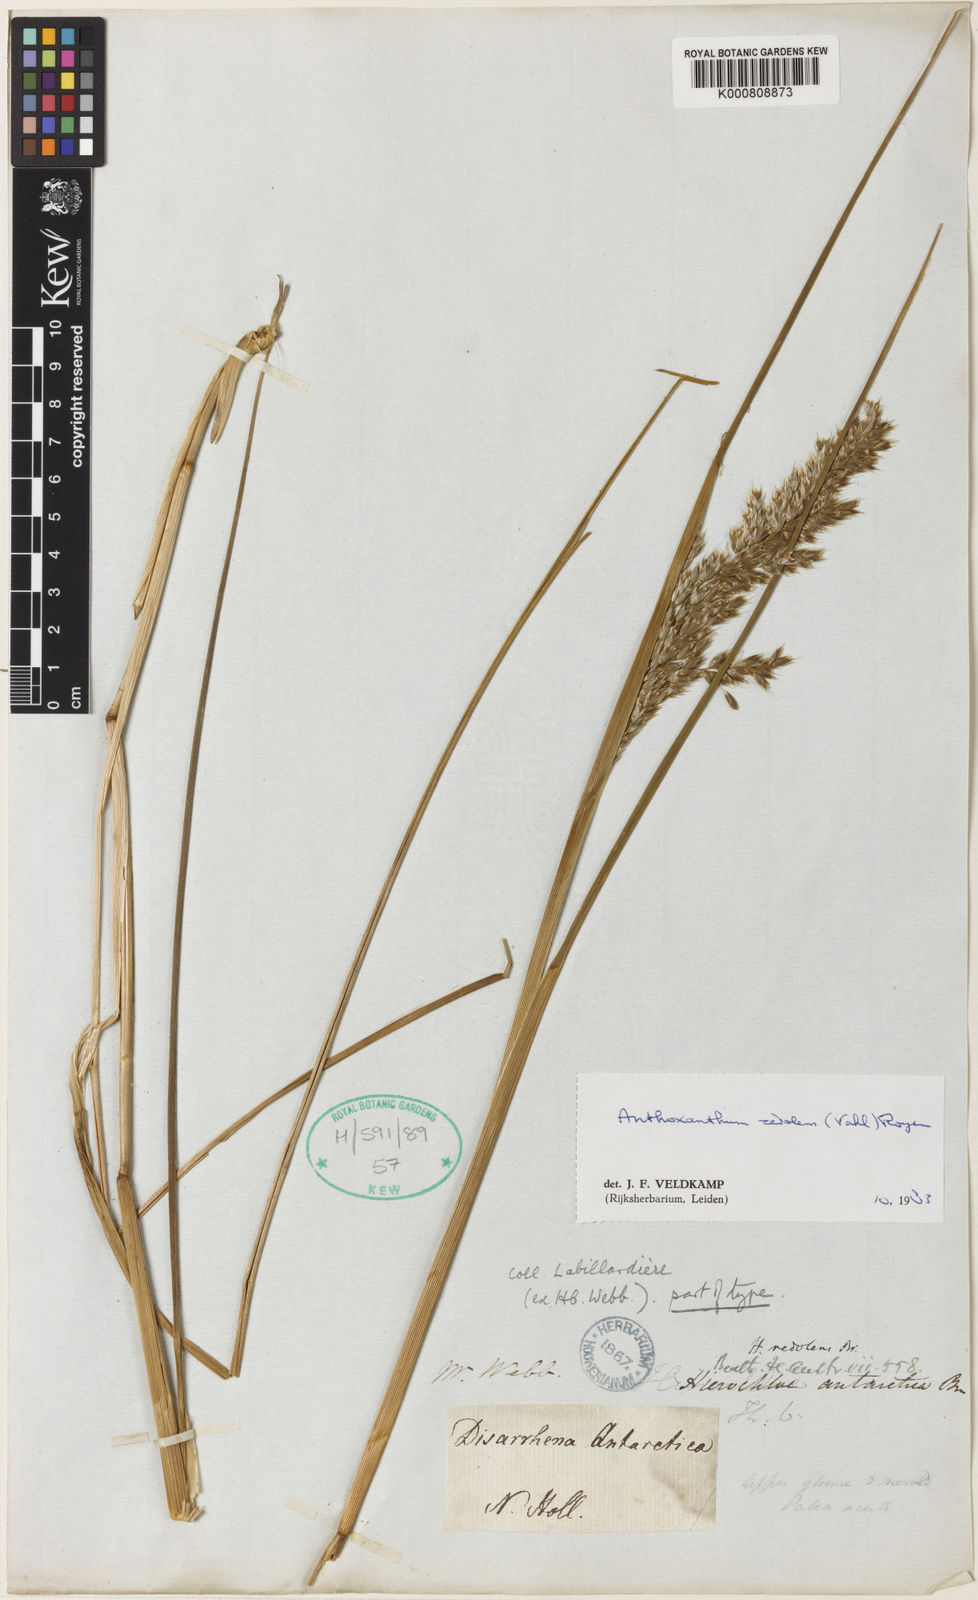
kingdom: Plantae
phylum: Tracheophyta
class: Liliopsida
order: Poales
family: Poaceae
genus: Hierochloe
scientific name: Hierochloe
